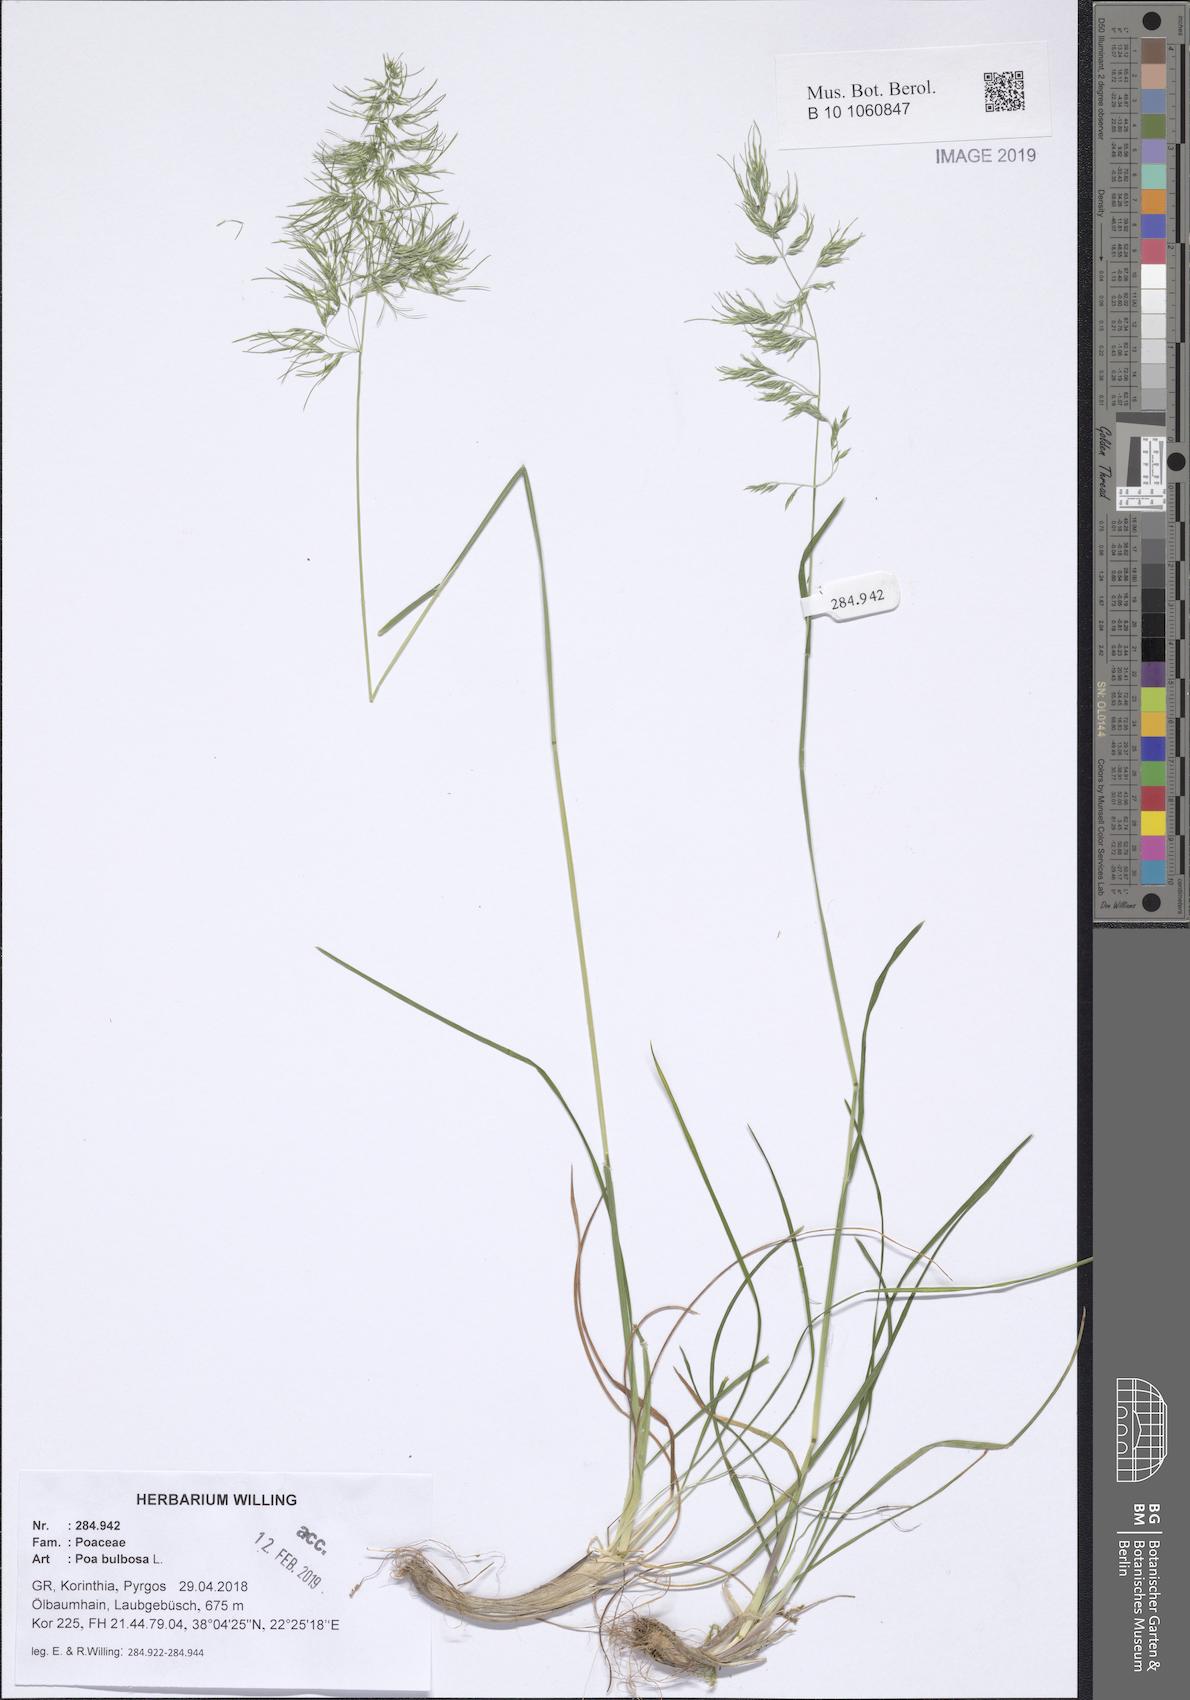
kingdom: Plantae
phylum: Tracheophyta
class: Liliopsida
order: Poales
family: Poaceae
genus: Poa
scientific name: Poa bulbosa
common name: Bulbous bluegrass
